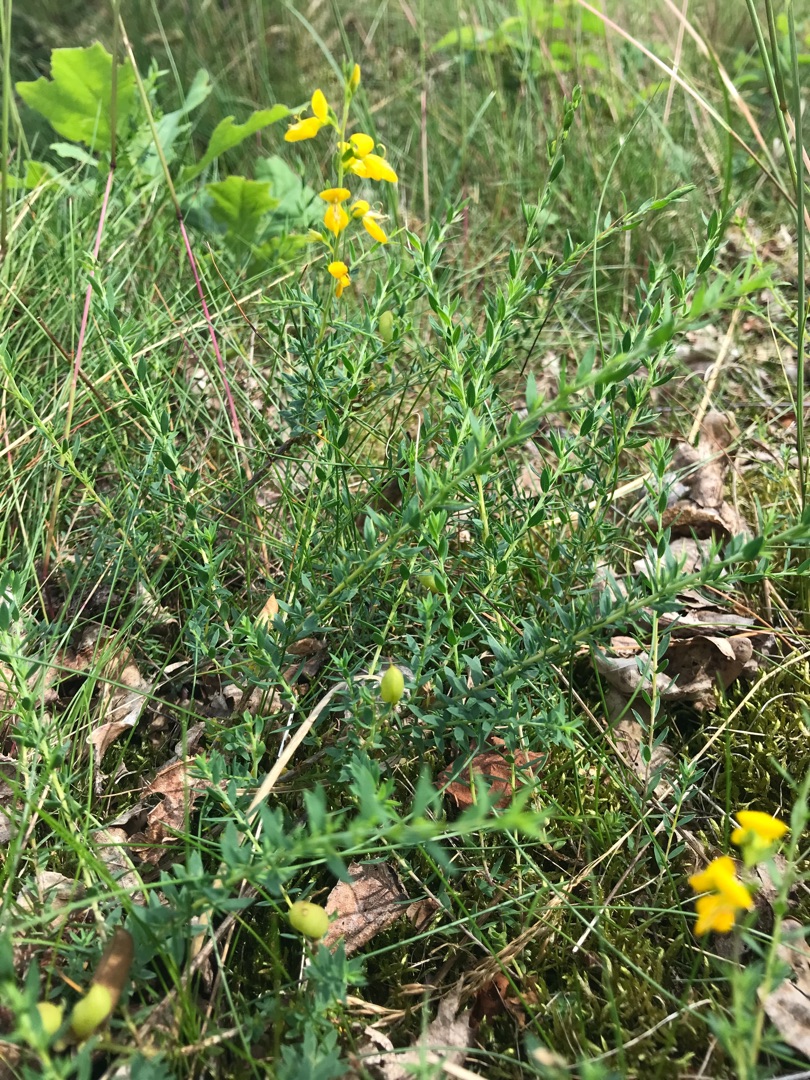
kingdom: Plantae
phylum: Tracheophyta
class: Magnoliopsida
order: Fabales
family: Fabaceae
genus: Genista
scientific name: Genista anglica
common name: Engelsk visse
